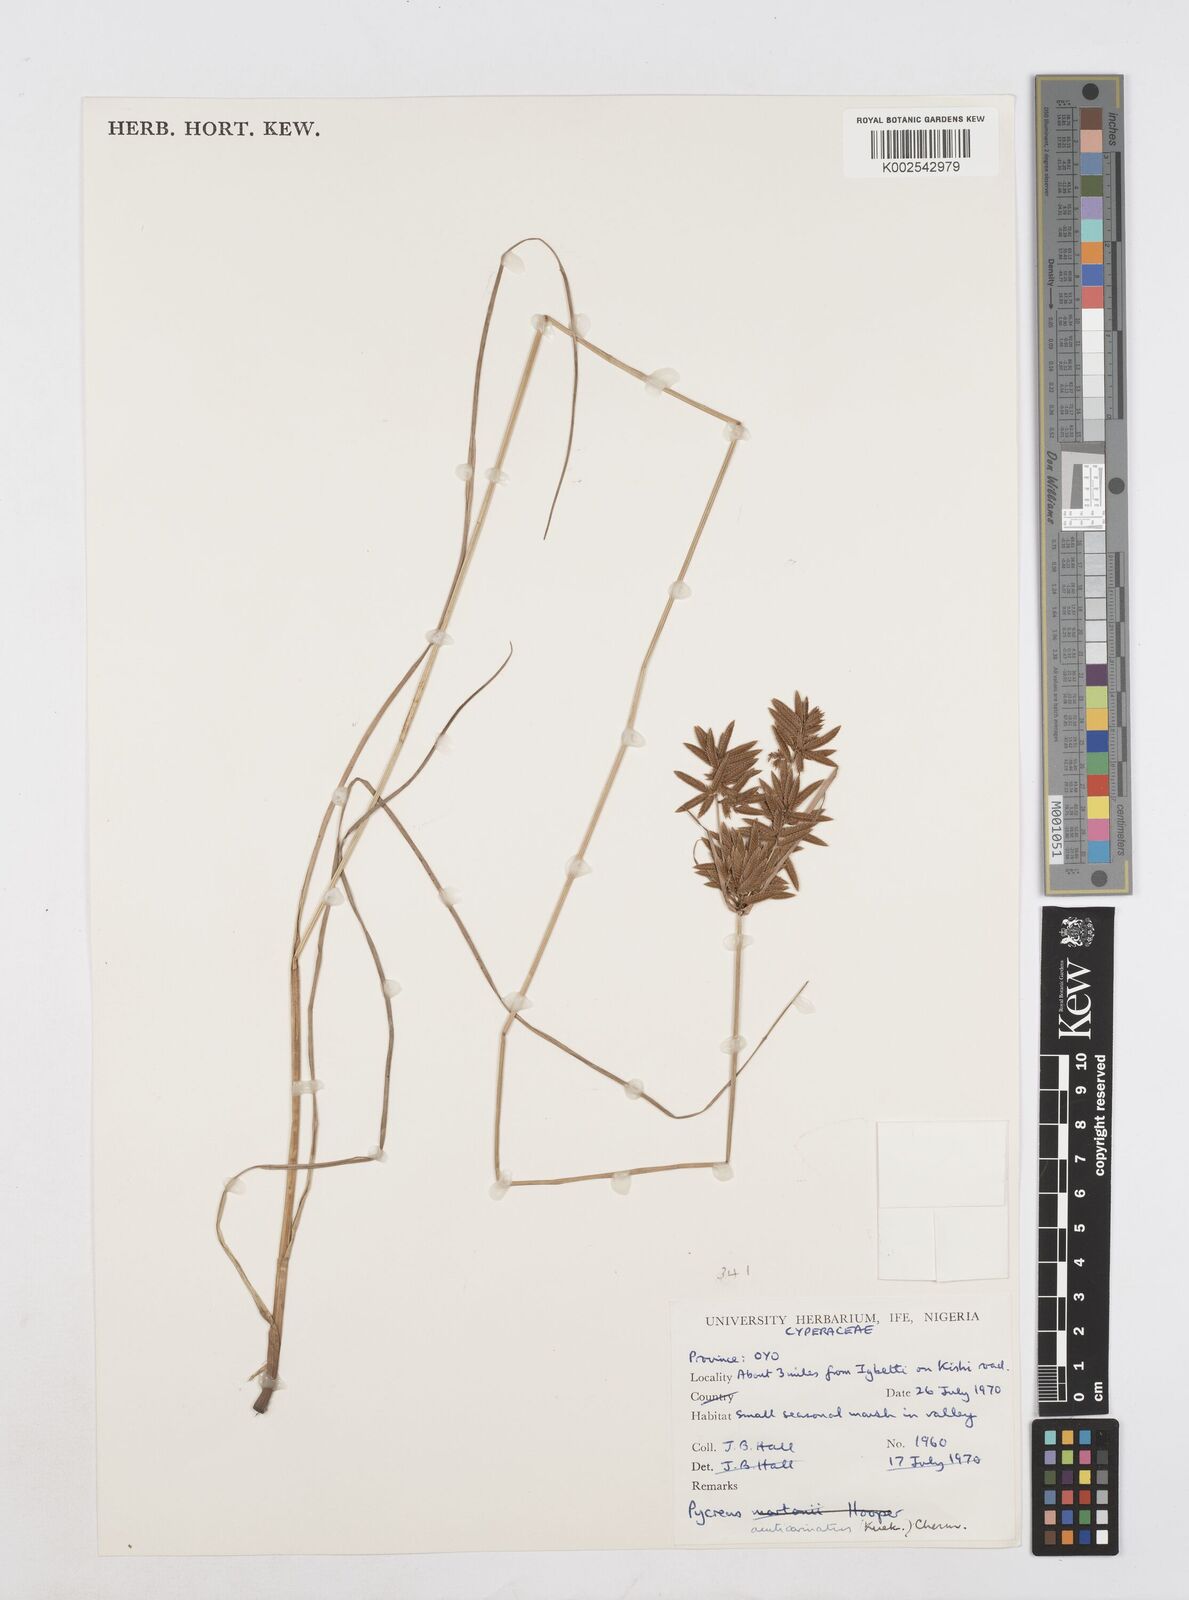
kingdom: Plantae
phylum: Tracheophyta
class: Liliopsida
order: Poales
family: Cyperaceae
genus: Cyperus
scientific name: Cyperus acuticarinatus
